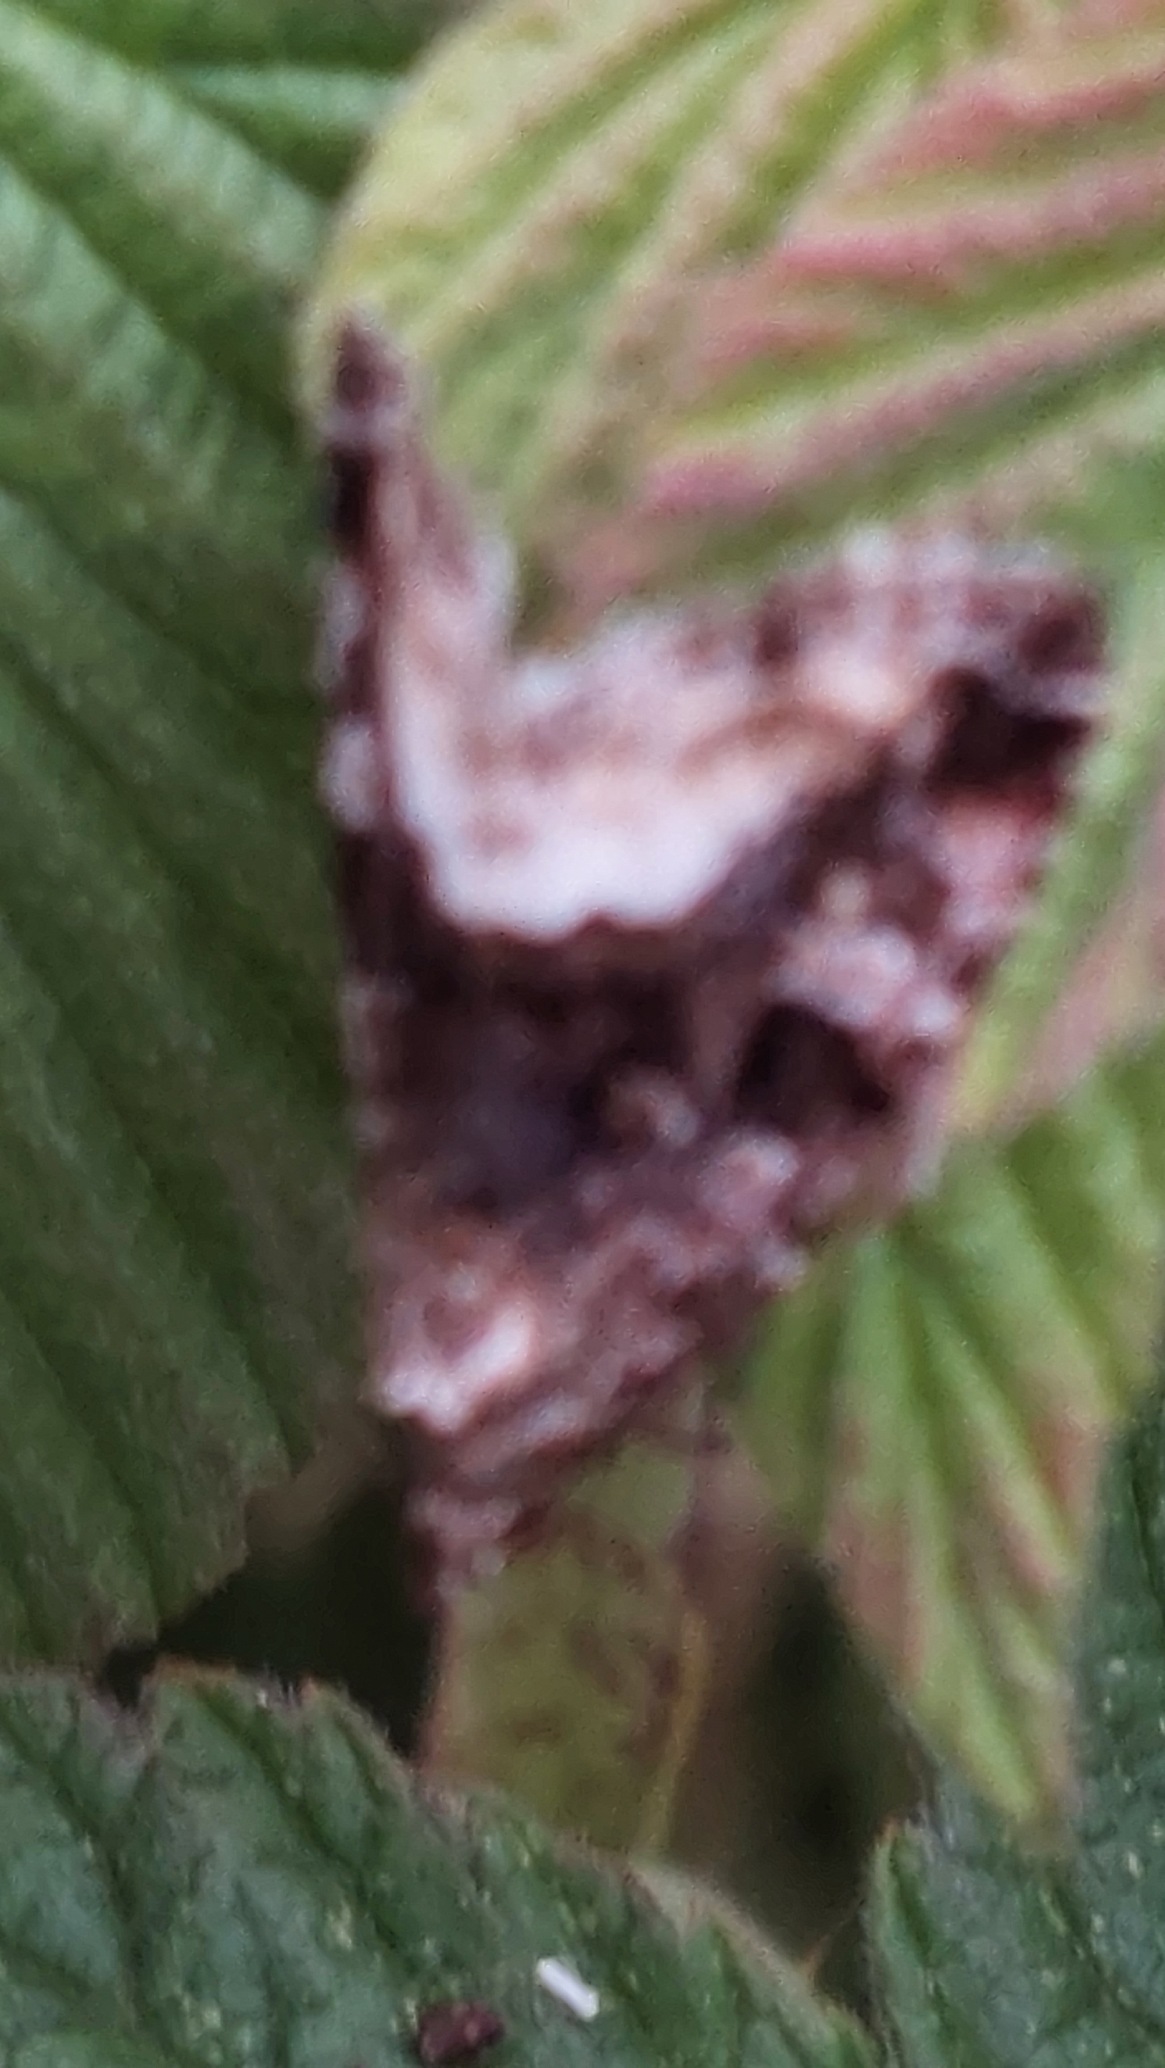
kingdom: Animalia
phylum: Arthropoda
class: Insecta
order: Lepidoptera
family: Noctuidae
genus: Deltote
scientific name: Deltote pygarga
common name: Hvidhjørnet dagugle
